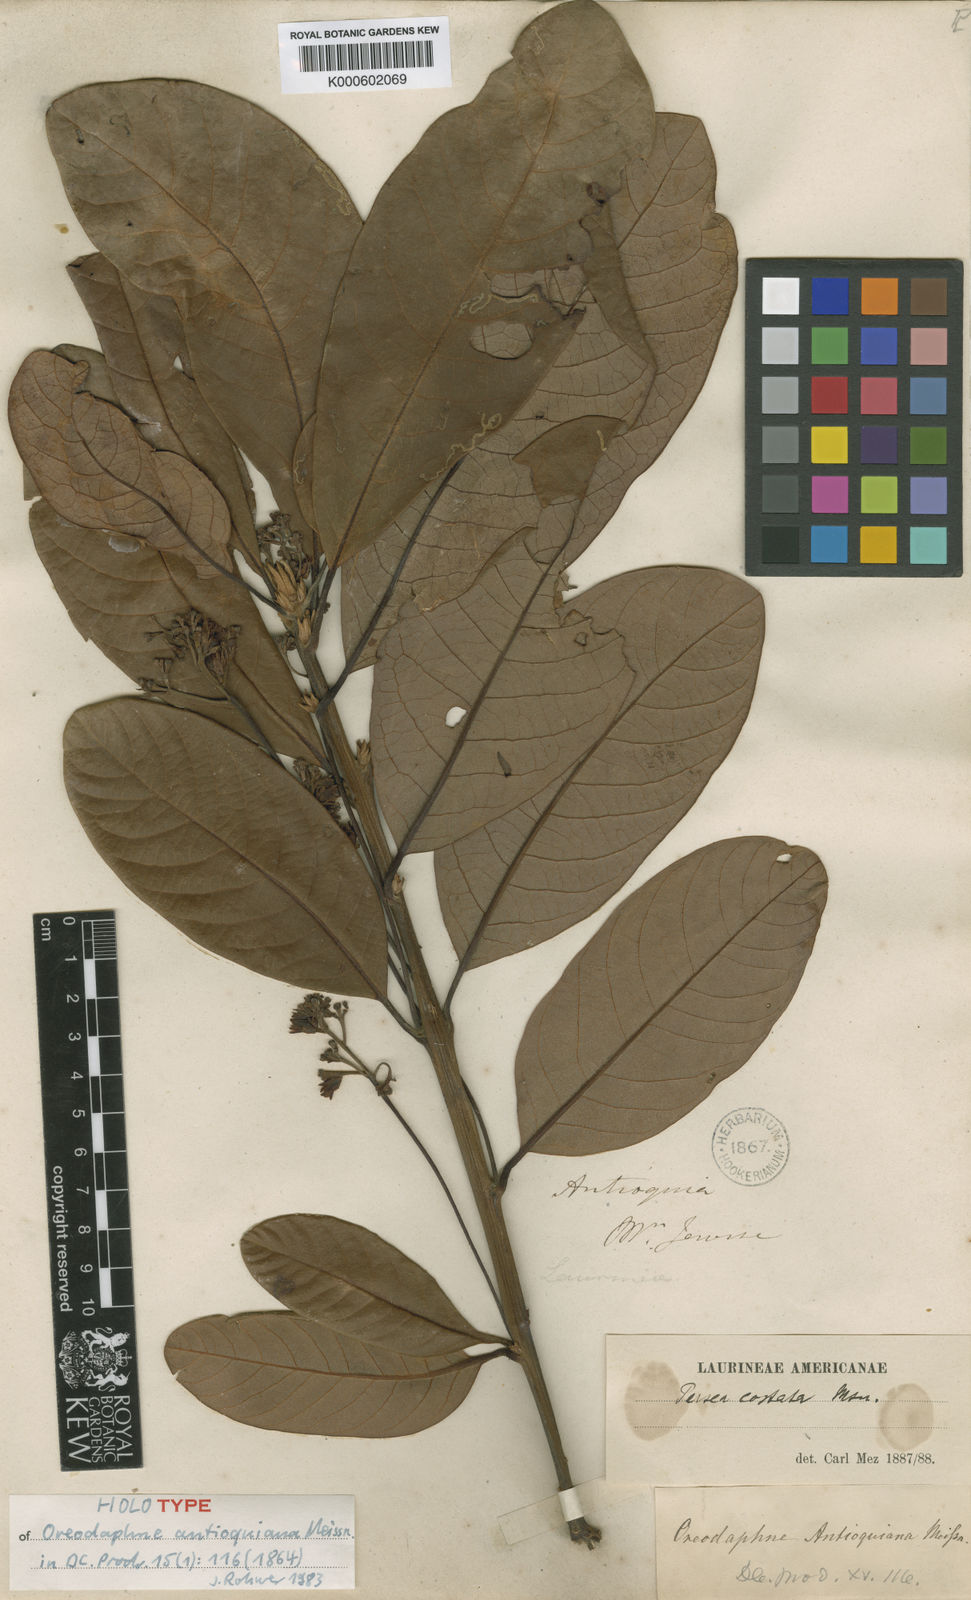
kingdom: Plantae
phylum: Tracheophyta
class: Magnoliopsida
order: Laurales
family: Lauraceae
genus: Persea
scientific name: Persea costata
